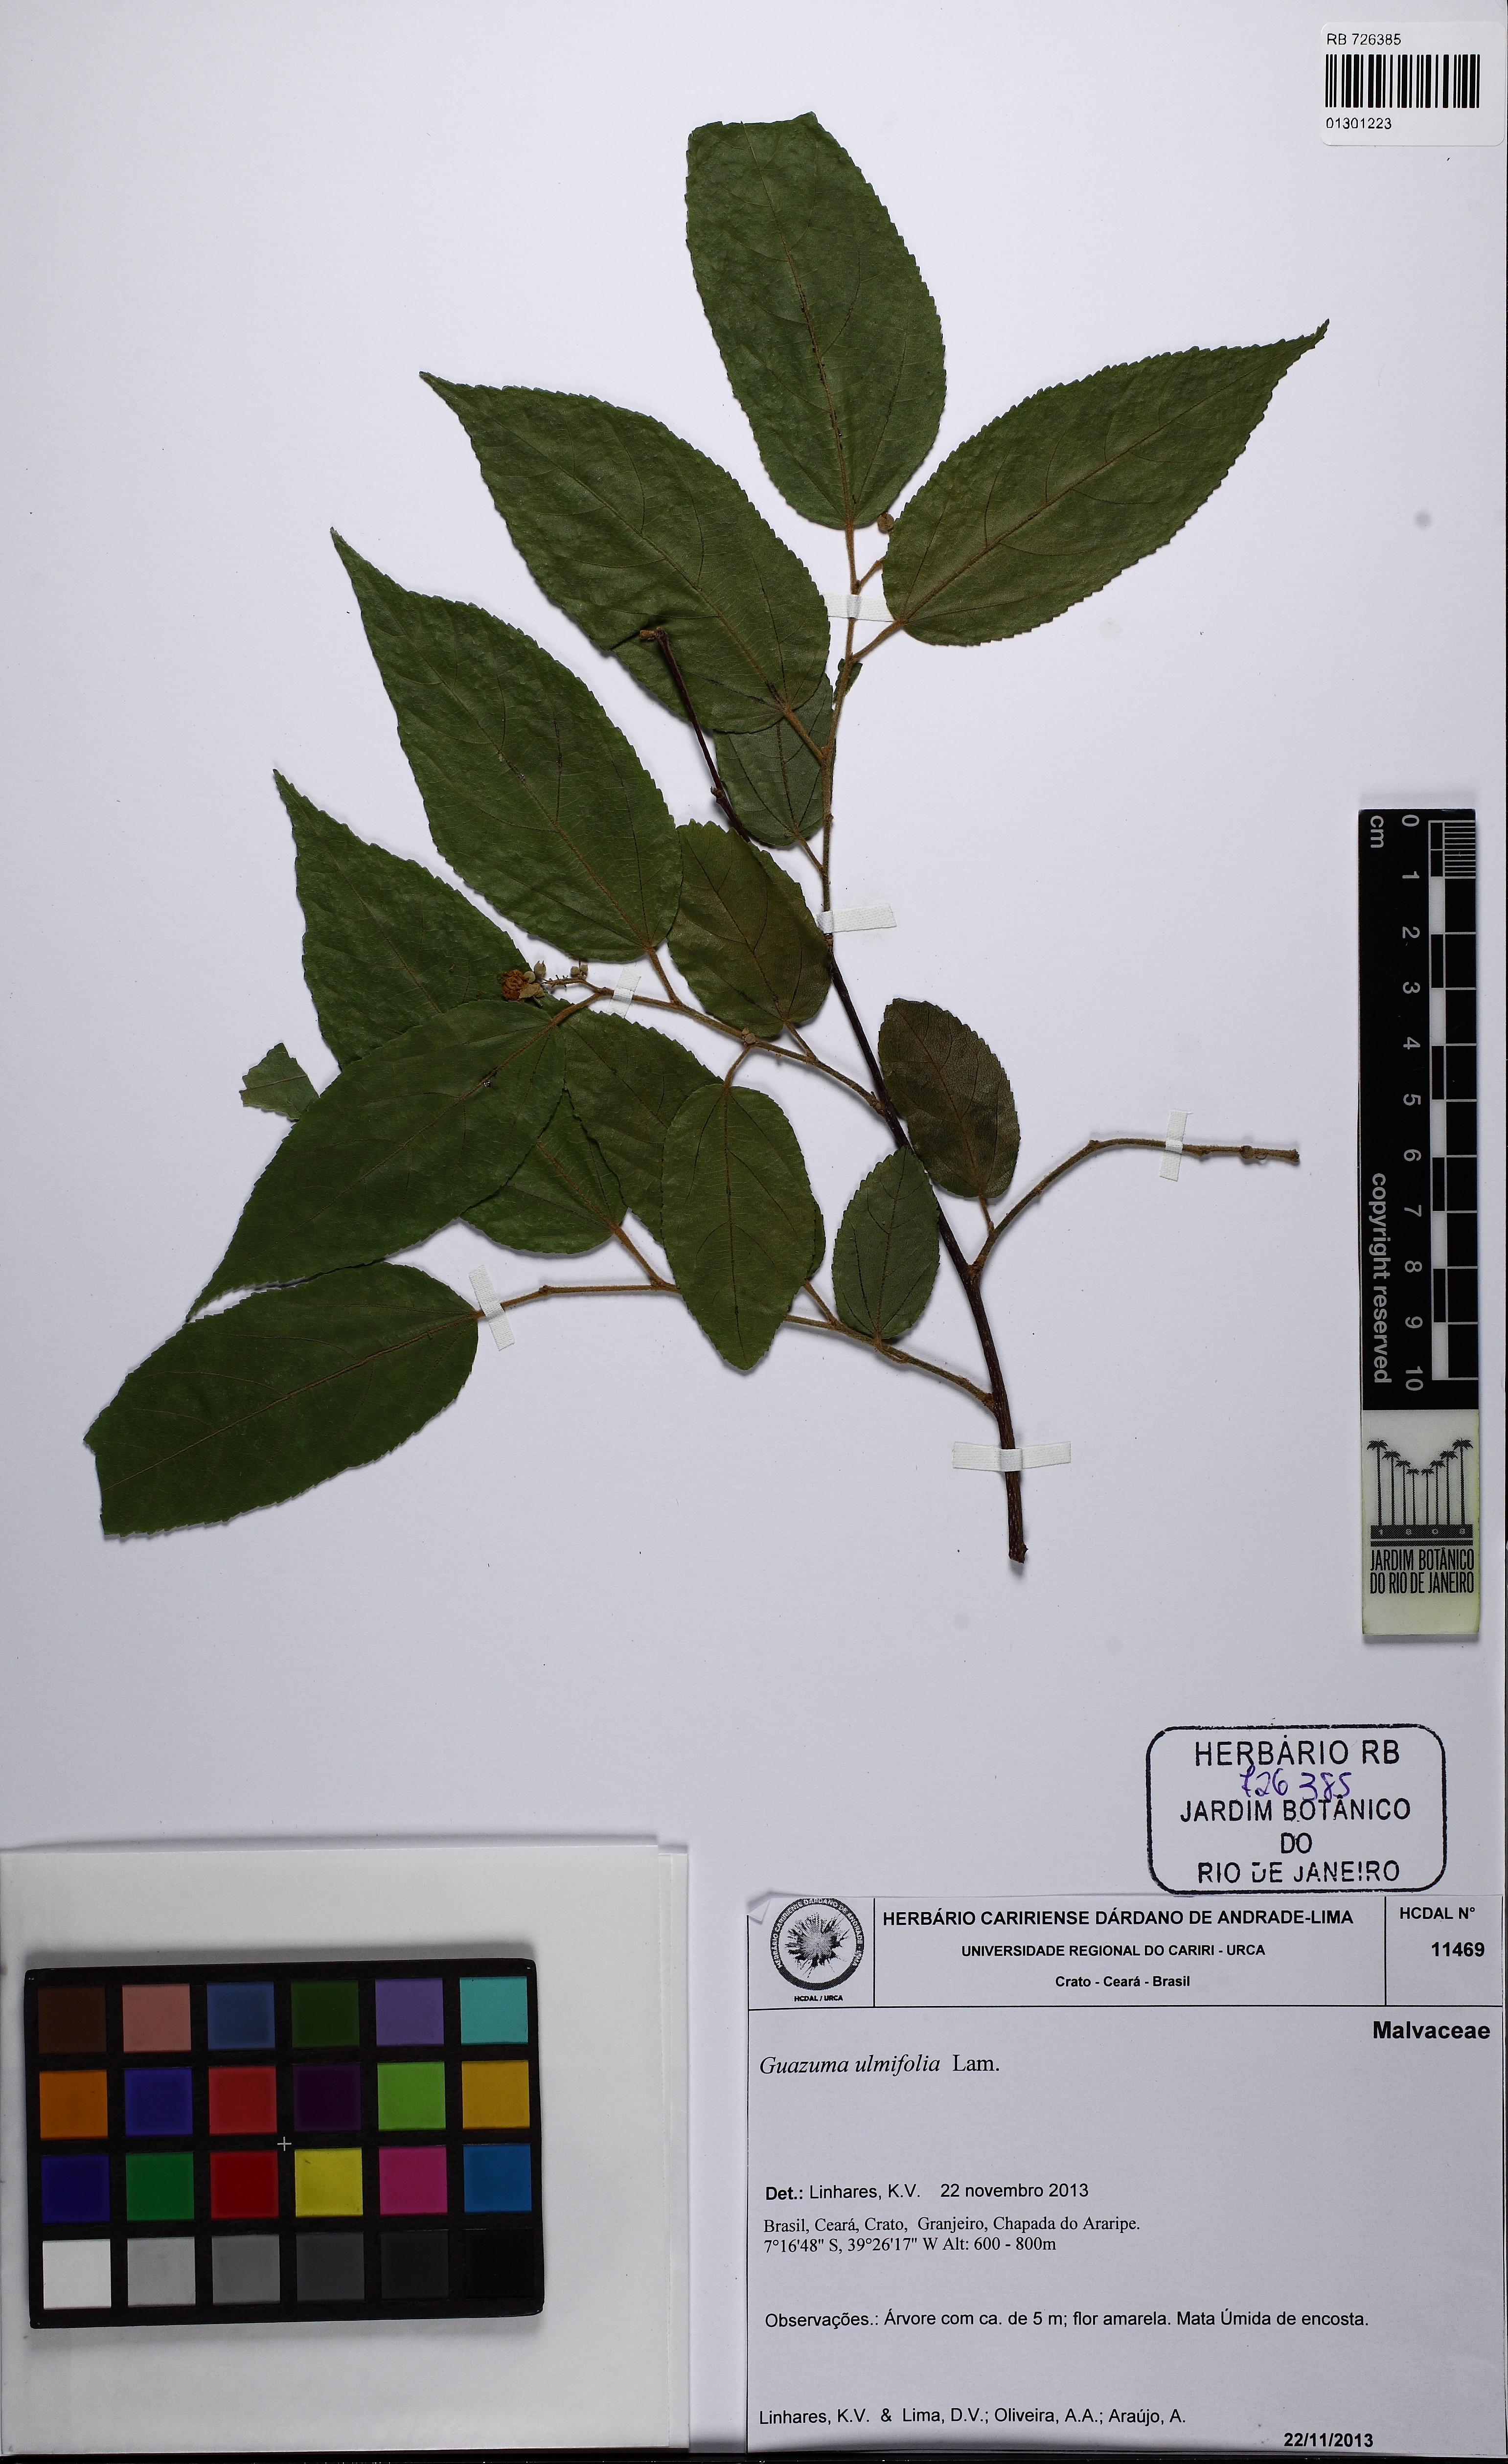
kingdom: Plantae
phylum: Tracheophyta
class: Magnoliopsida
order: Malvales
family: Malvaceae
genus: Guazuma
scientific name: Guazuma ulmifolia
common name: Bastard-cedar
